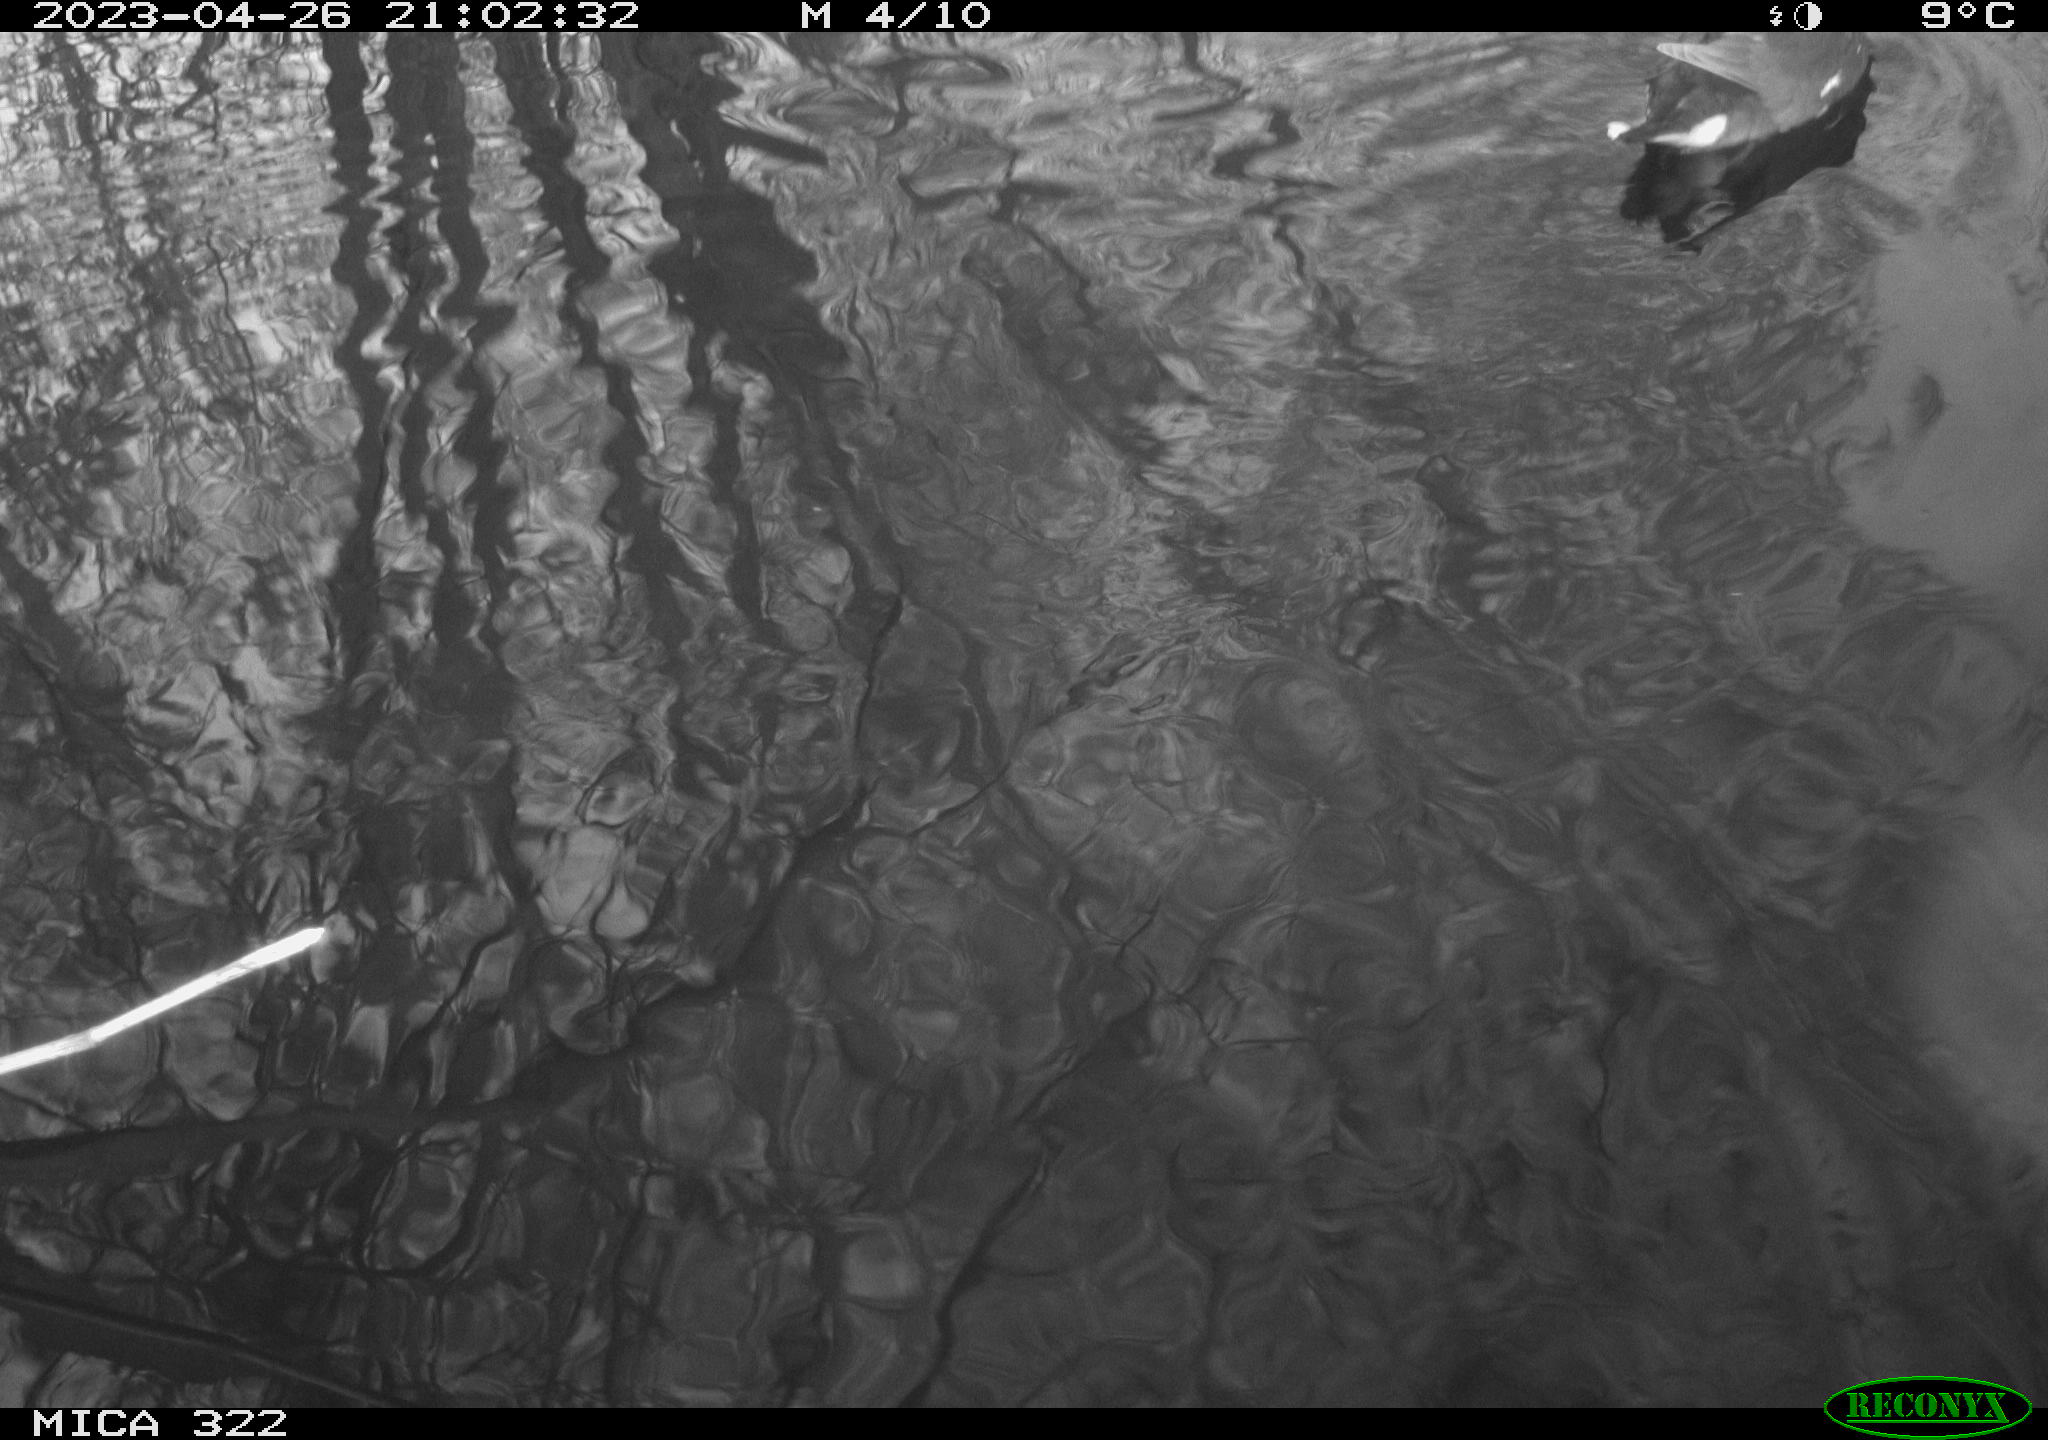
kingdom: Animalia
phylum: Chordata
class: Aves
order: Gruiformes
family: Rallidae
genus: Gallinula
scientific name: Gallinula chloropus
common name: Common moorhen
